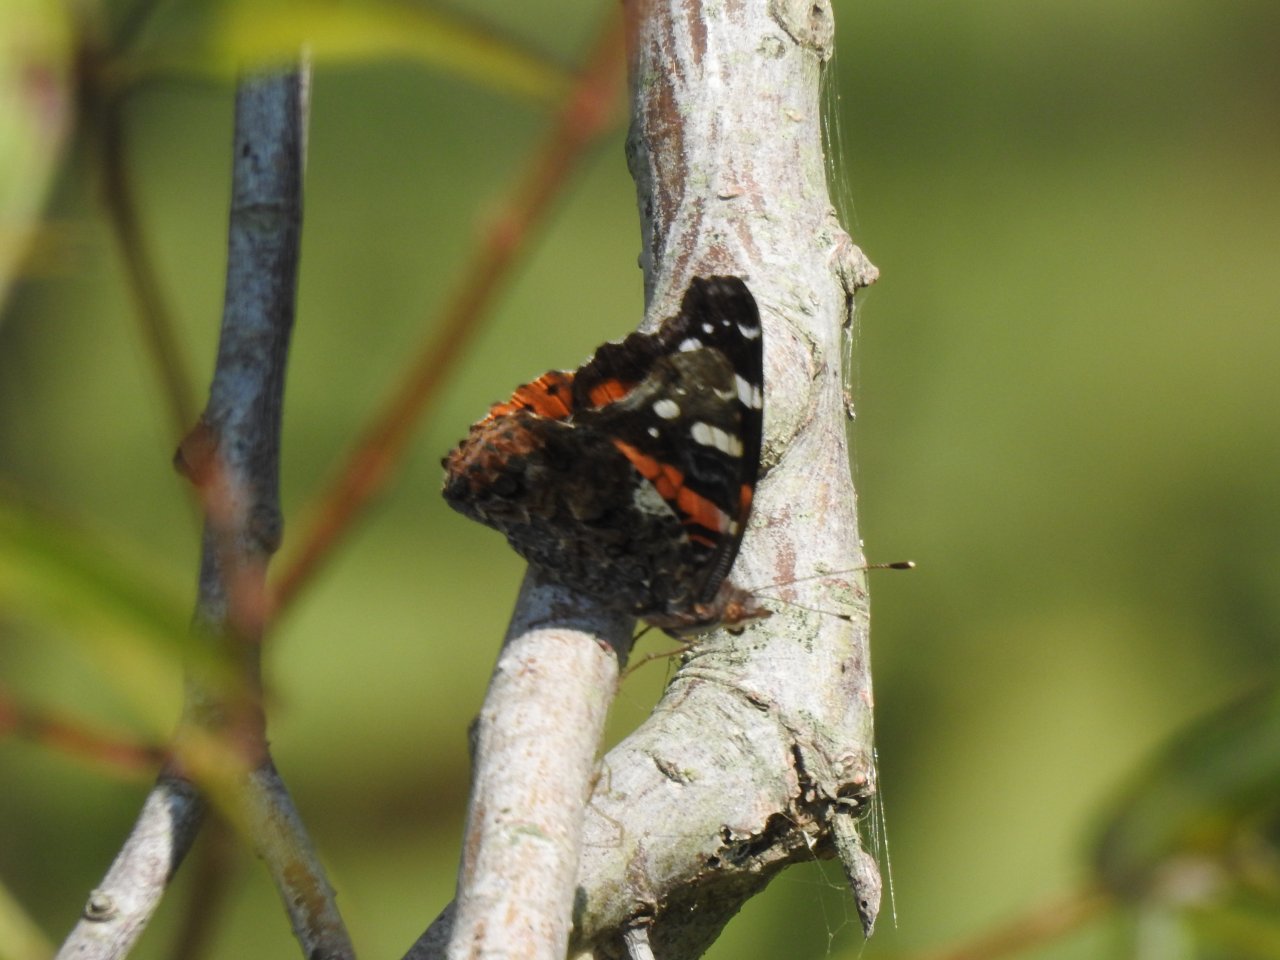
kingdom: Animalia
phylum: Arthropoda
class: Insecta
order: Lepidoptera
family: Nymphalidae
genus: Vanessa
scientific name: Vanessa atalanta
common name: Red Admiral
